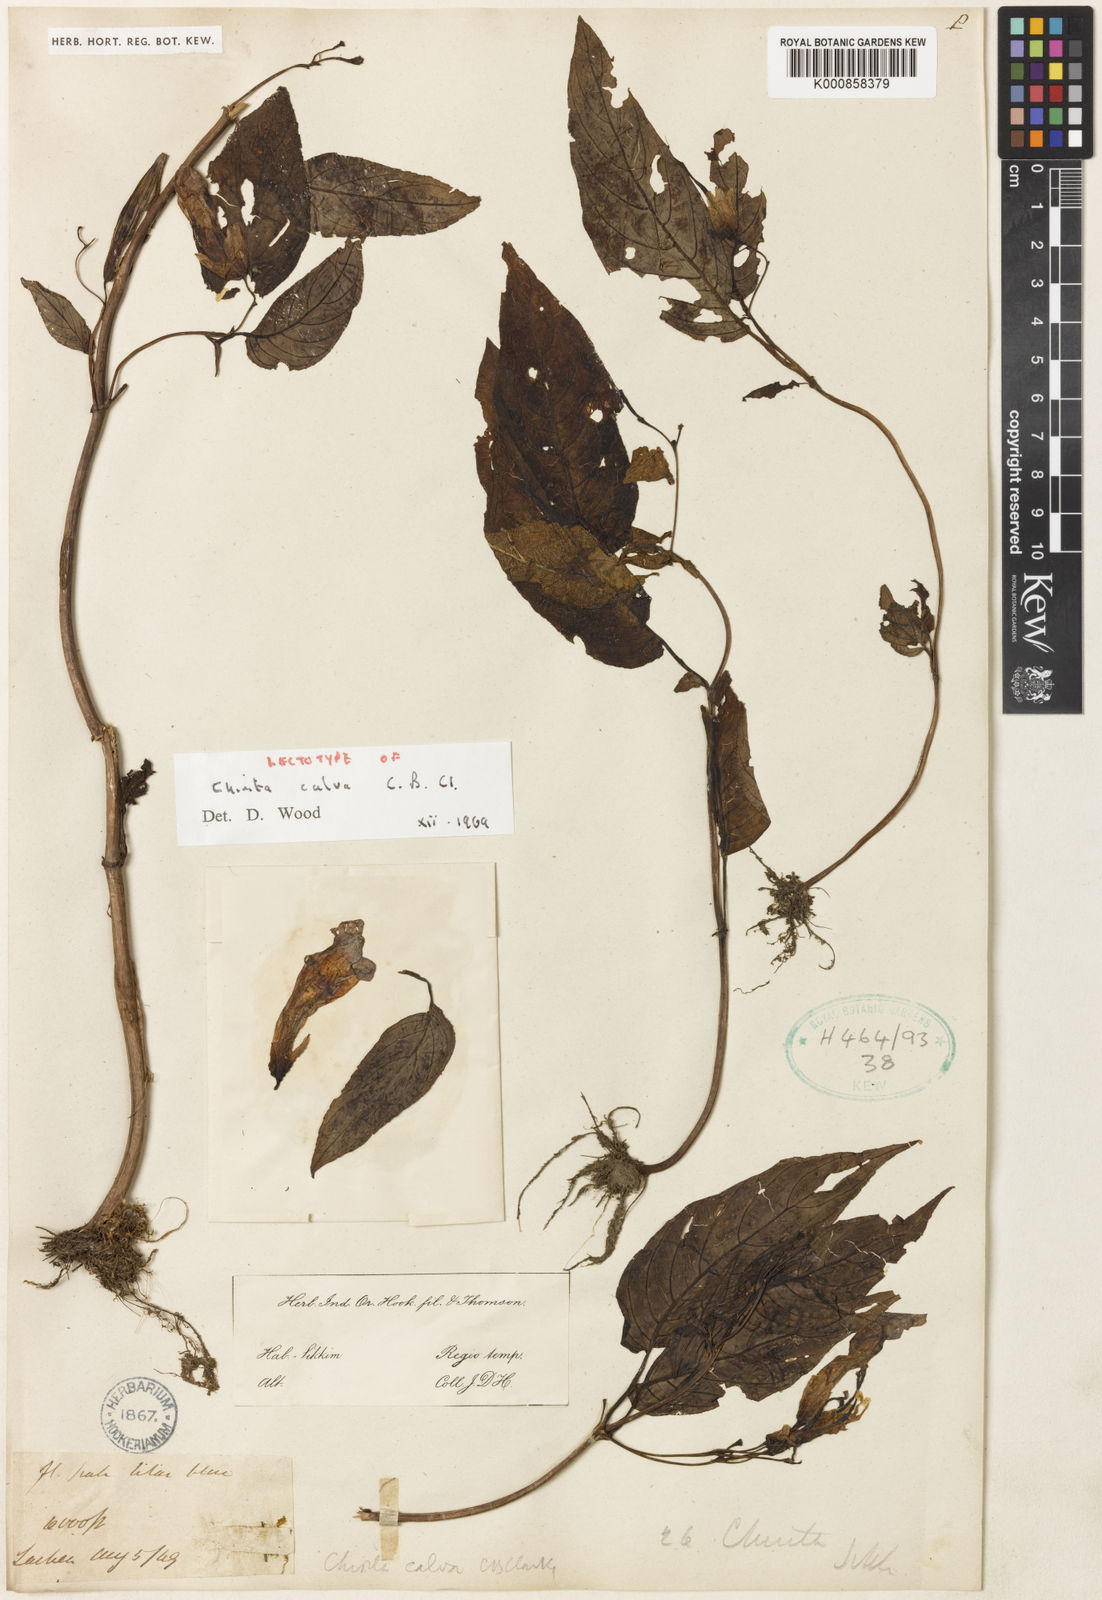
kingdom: Plantae
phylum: Tracheophyta
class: Magnoliopsida
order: Lamiales
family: Gesneriaceae
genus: Henckelia
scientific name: Henckelia calva
